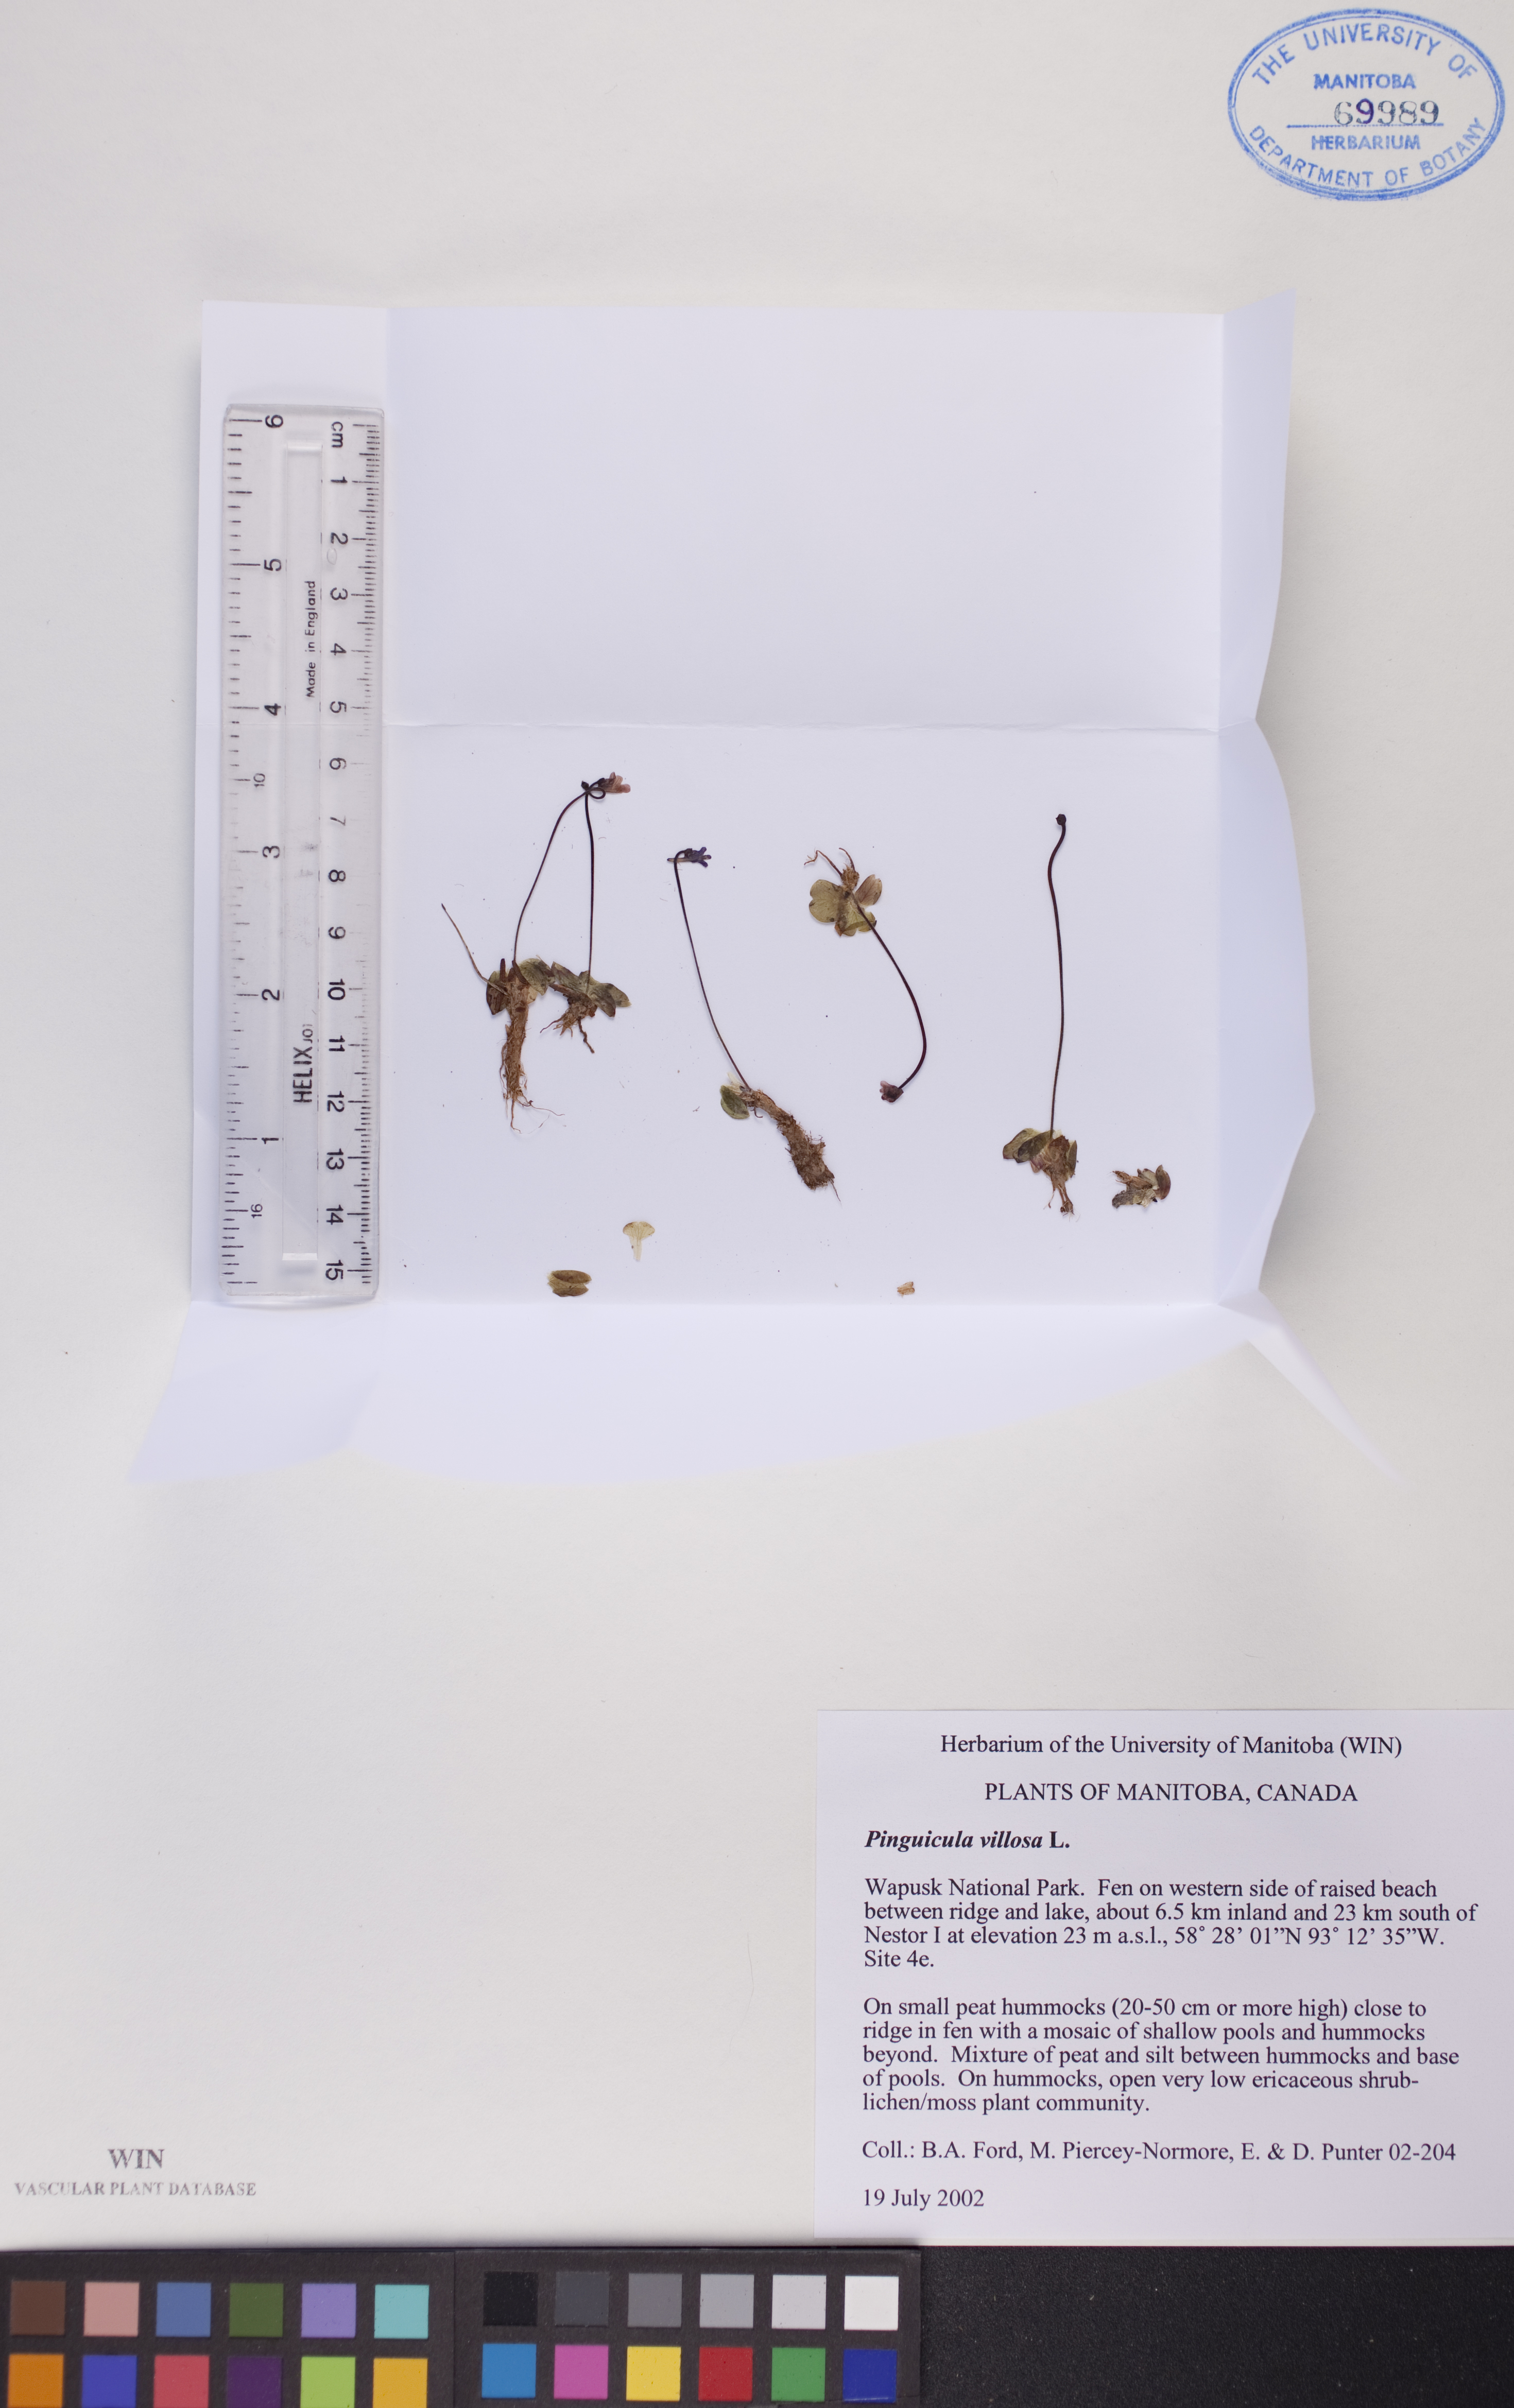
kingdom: Plantae
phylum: Tracheophyta
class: Magnoliopsida
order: Lamiales
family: Lentibulariaceae
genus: Pinguicula
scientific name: Pinguicula villosa
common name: Hairy butterwort
